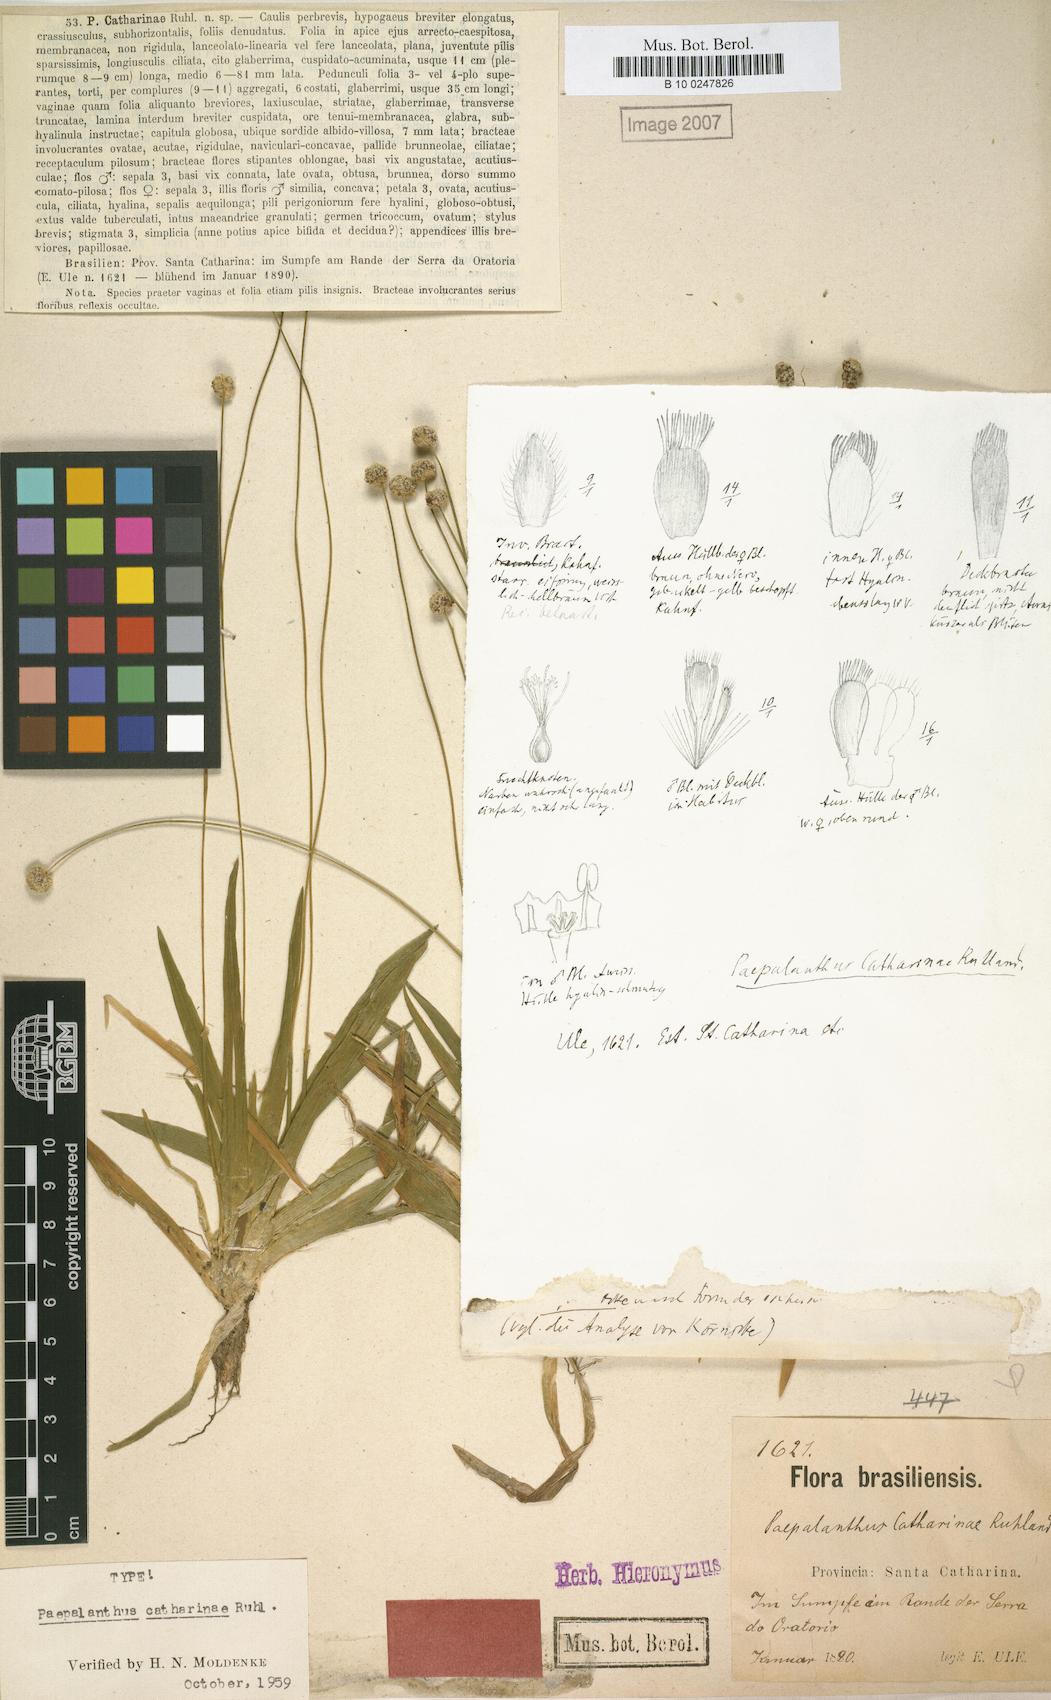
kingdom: Plantae
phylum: Tracheophyta
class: Liliopsida
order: Poales
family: Eriocaulaceae
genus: Paepalanthus
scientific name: Paepalanthus catharinae
